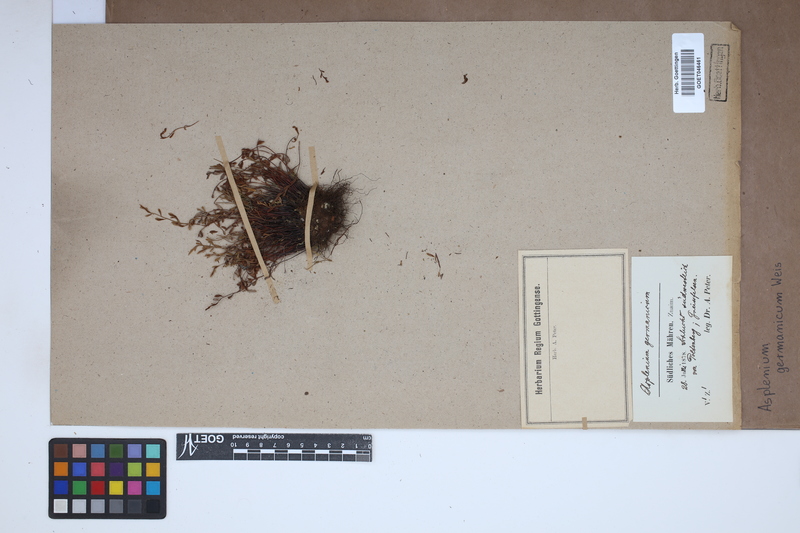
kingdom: Plantae
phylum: Tracheophyta
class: Polypodiopsida
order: Polypodiales
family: Aspleniaceae
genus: Asplenium
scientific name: Asplenium
